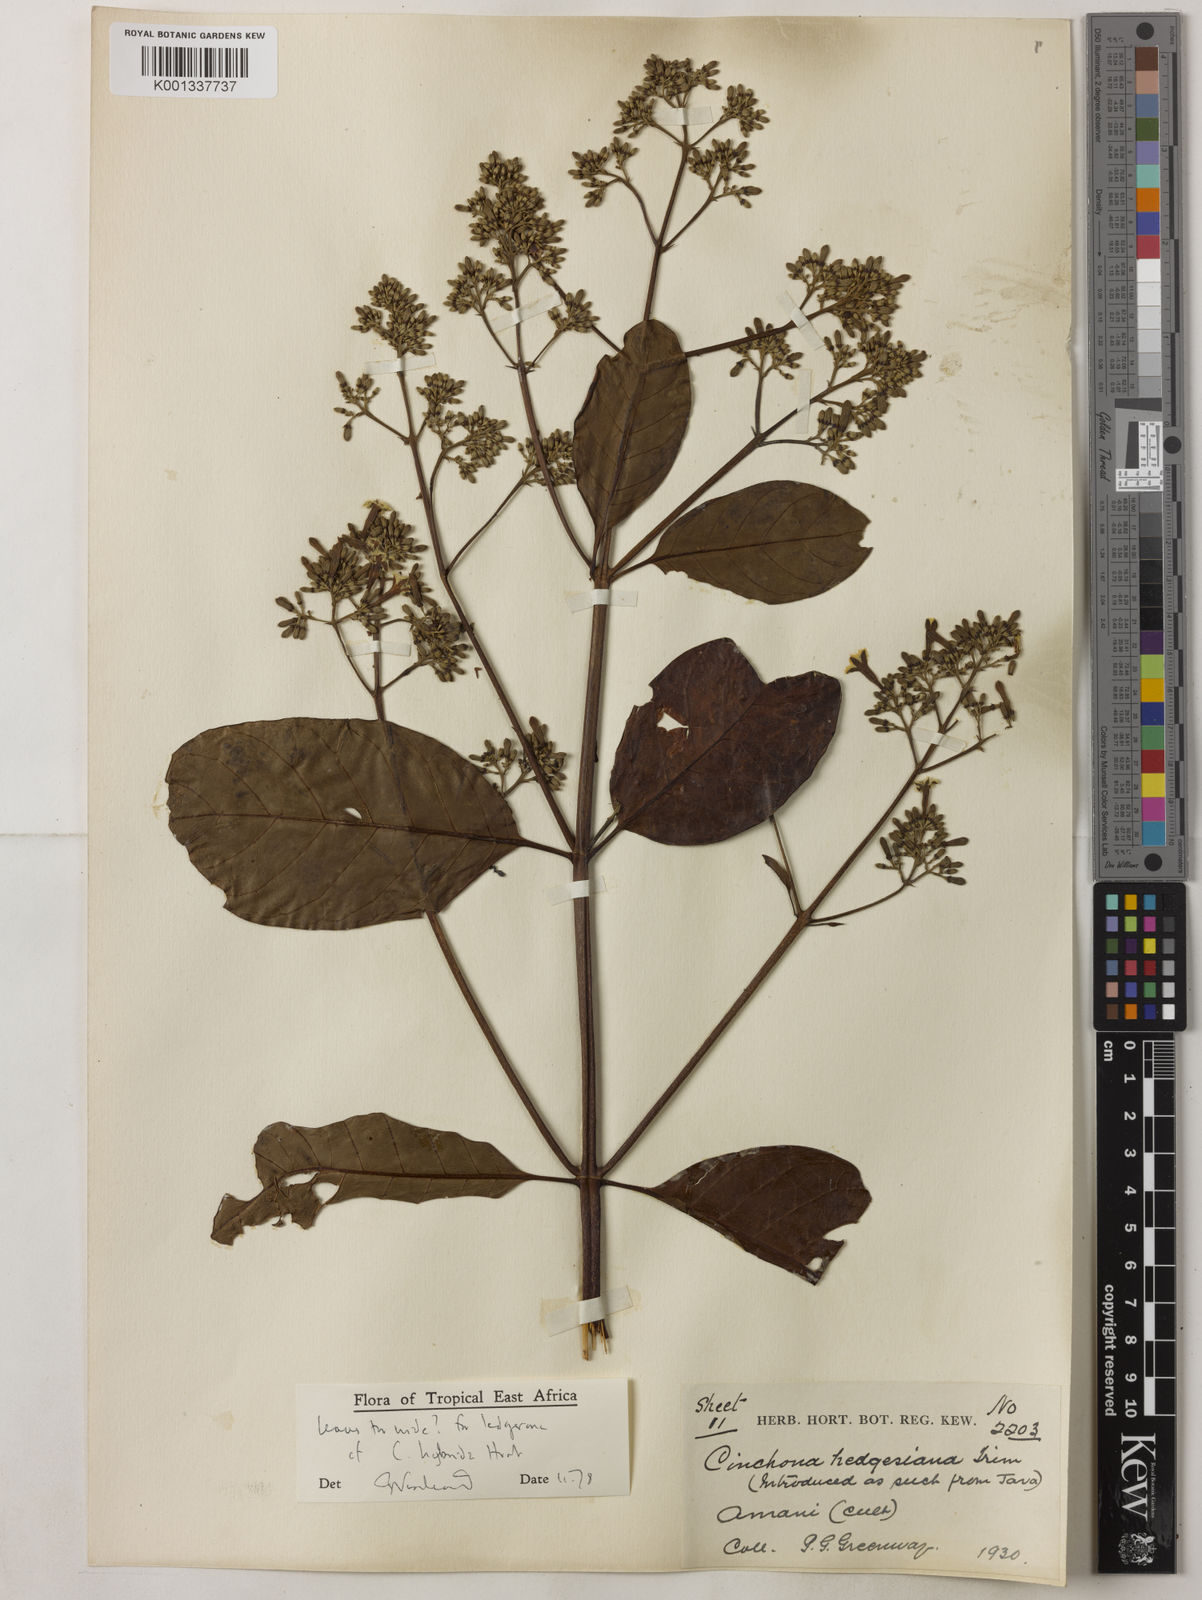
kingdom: Plantae
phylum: Tracheophyta
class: Magnoliopsida
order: Gentianales
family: Rubiaceae
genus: Cinchona
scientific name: Cinchona
